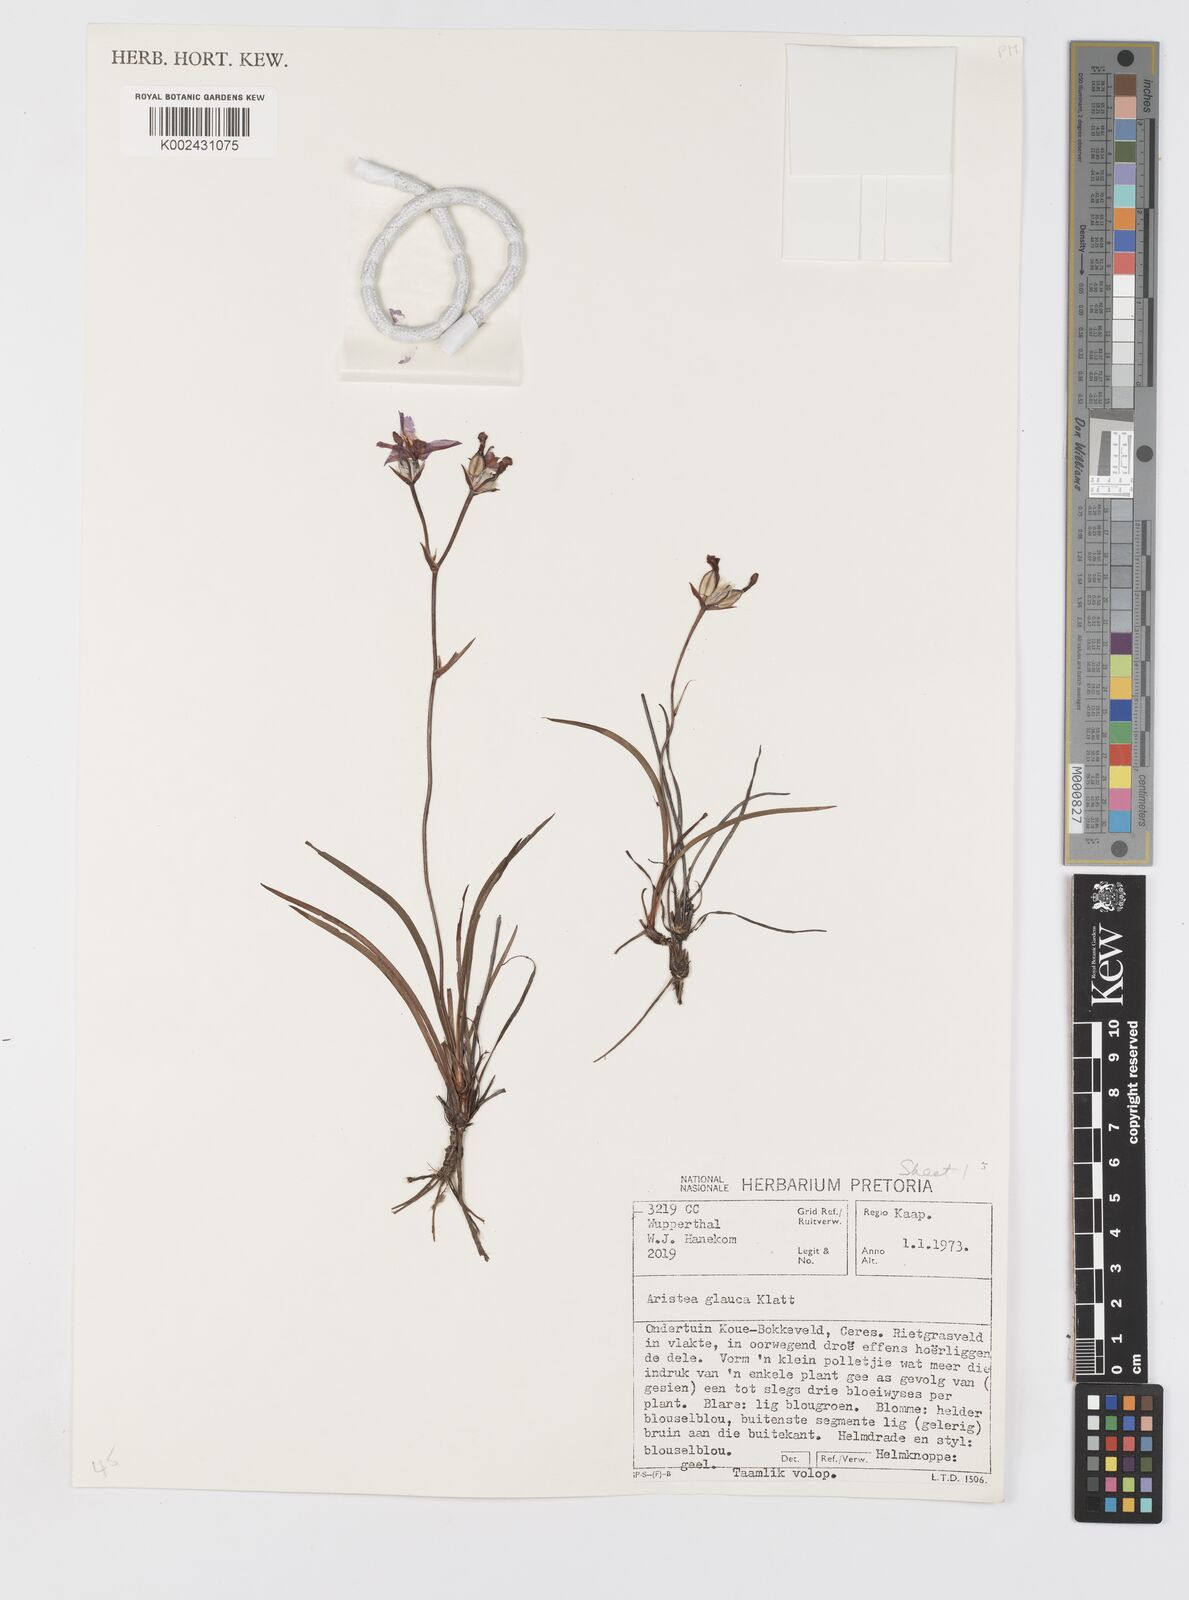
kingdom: Plantae
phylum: Tracheophyta
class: Liliopsida
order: Asparagales
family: Iridaceae
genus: Aristea
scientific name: Aristea glauca
